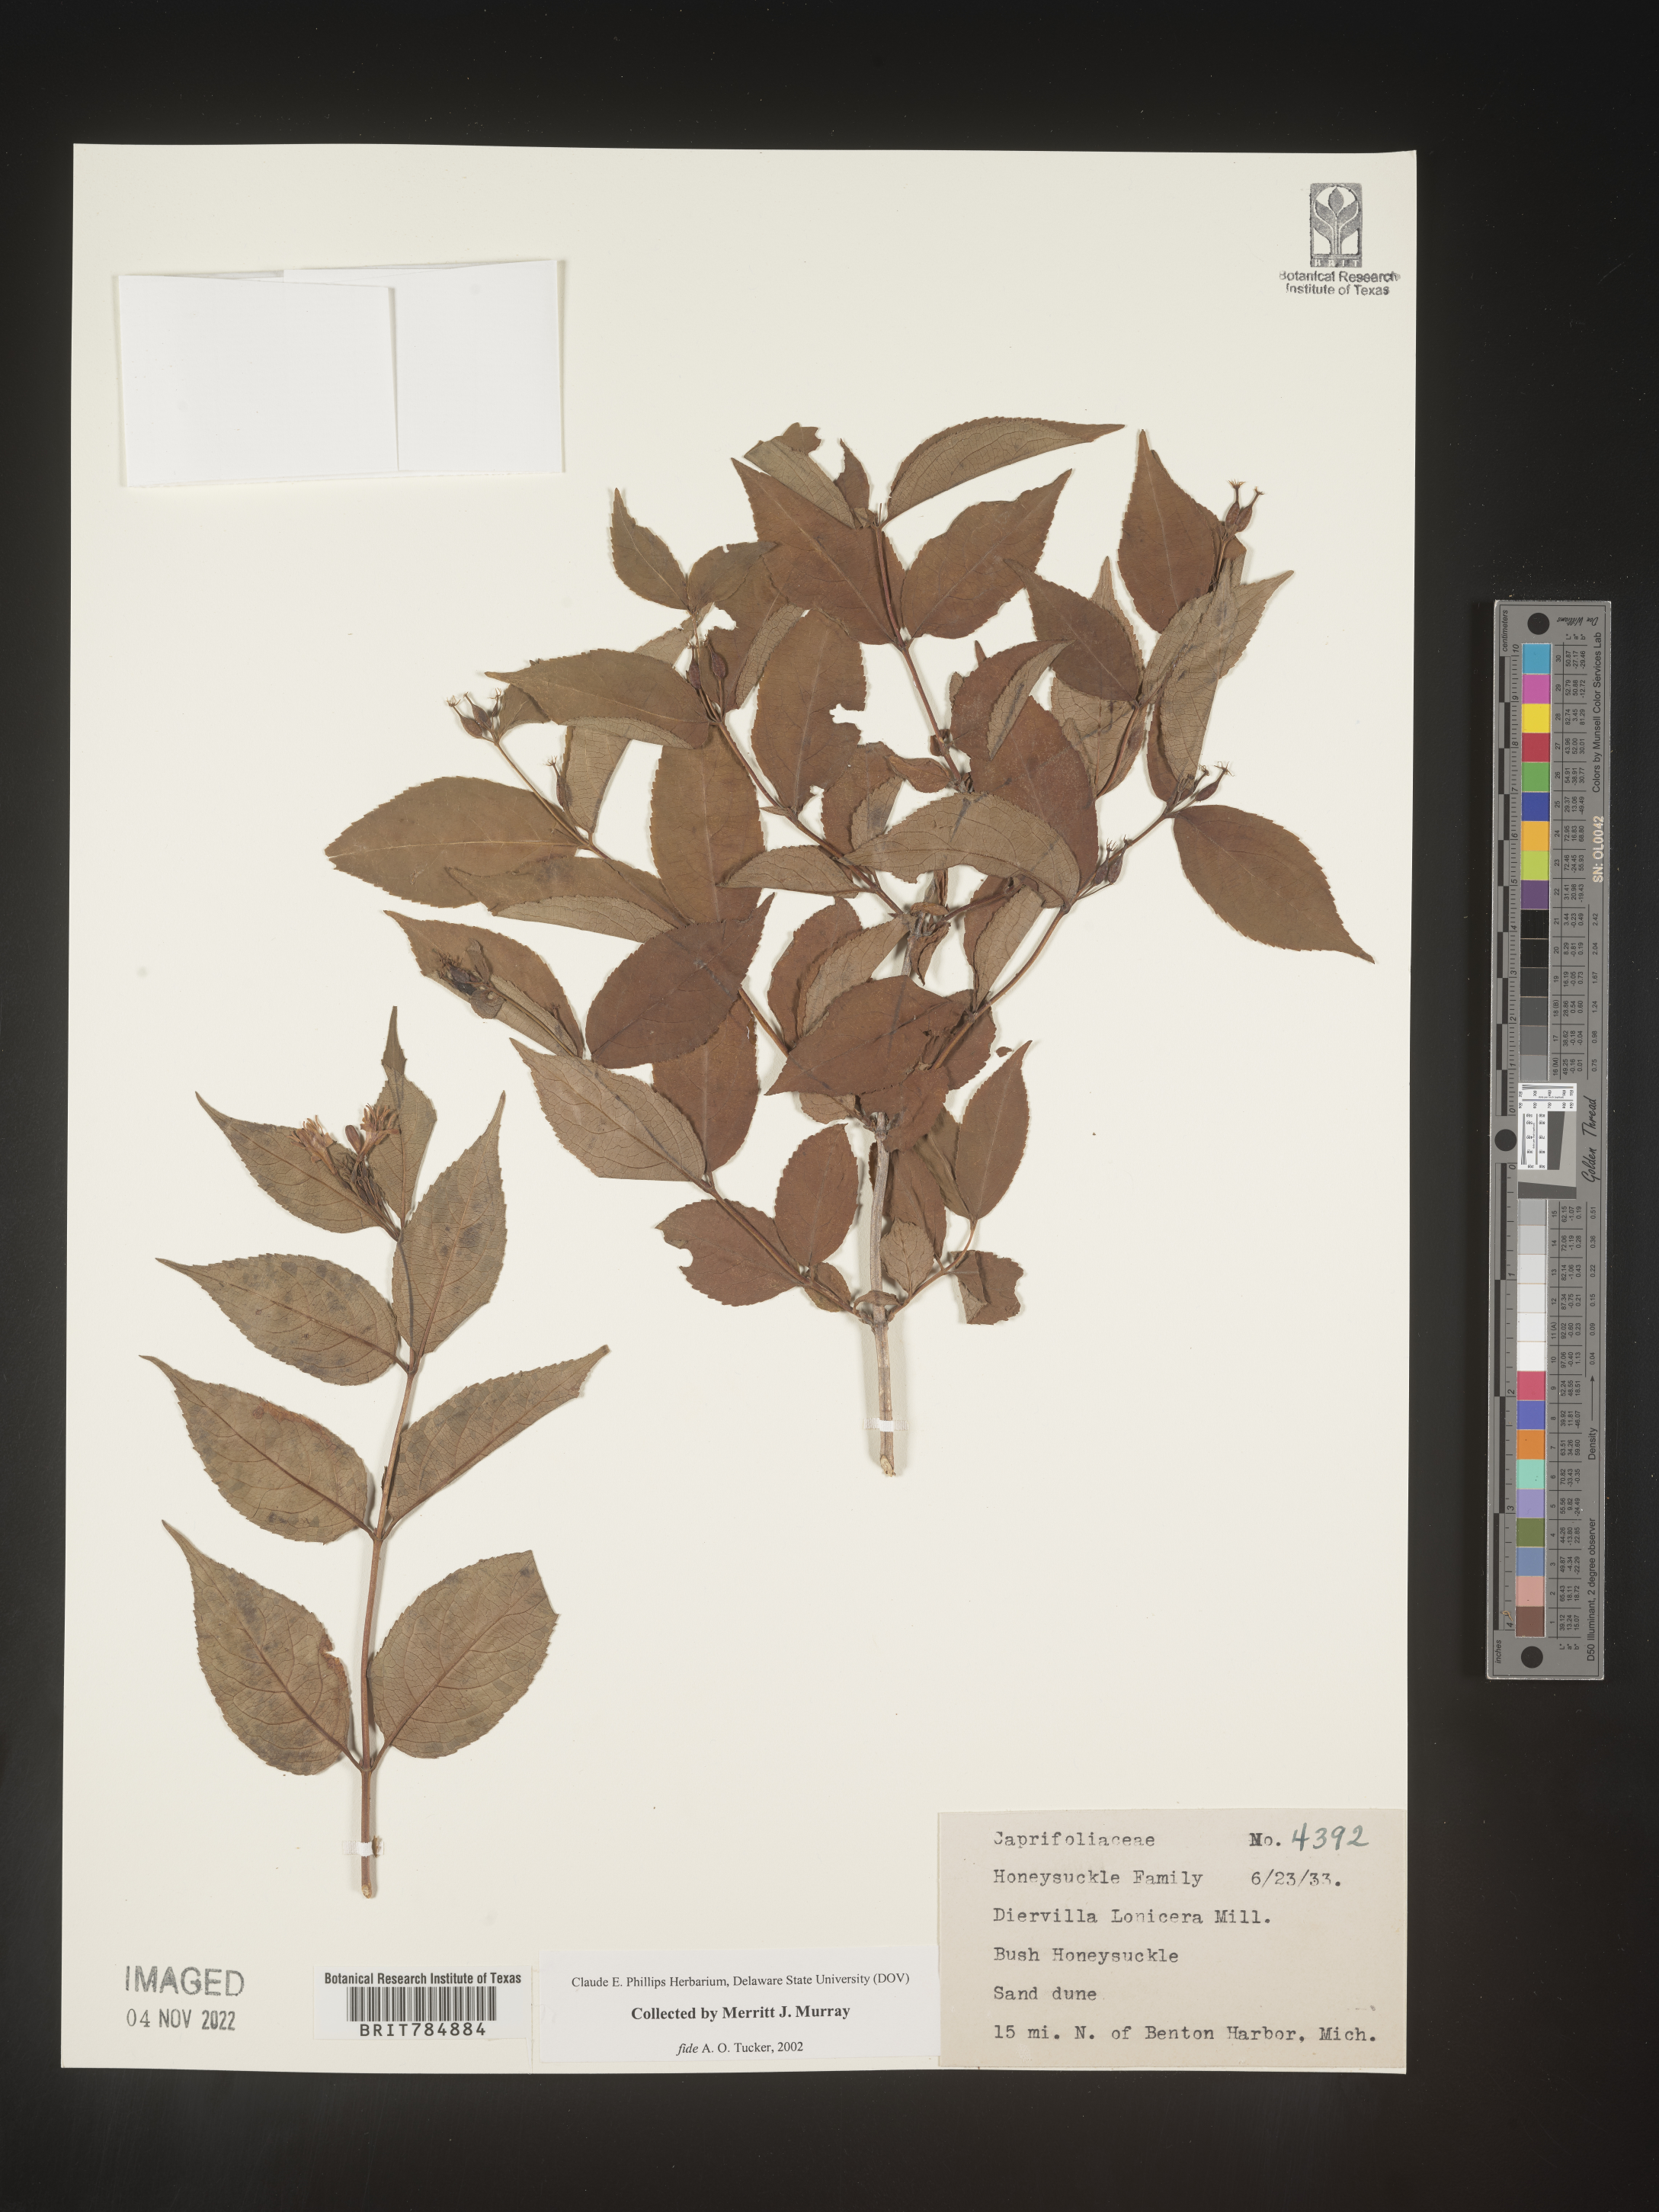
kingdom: Plantae
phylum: Tracheophyta
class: Magnoliopsida
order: Dipsacales
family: Caprifoliaceae
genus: Diervilla
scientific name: Diervilla lonicera
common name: Bush-honeysuckle
